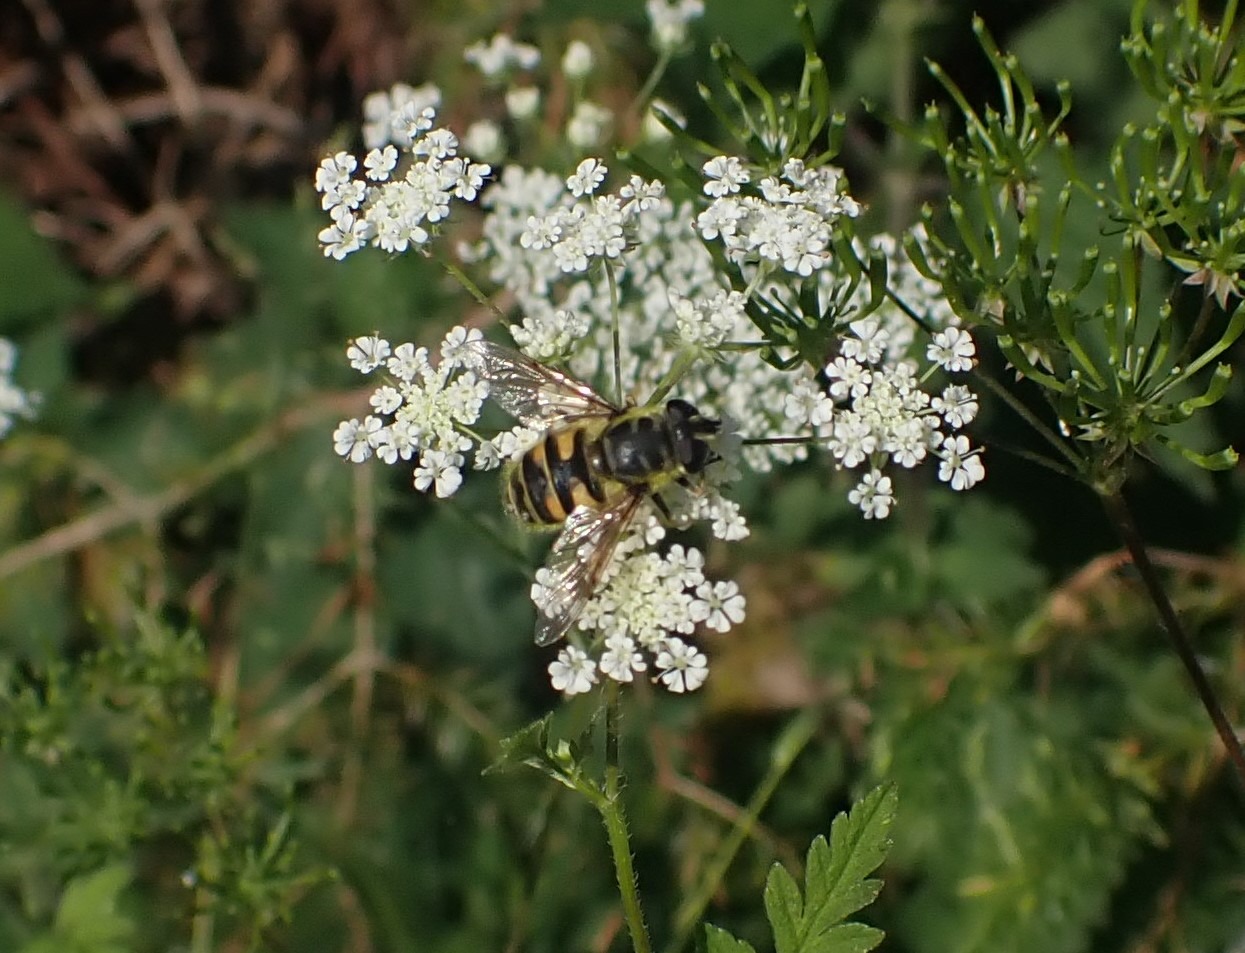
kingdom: Animalia
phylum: Arthropoda
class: Insecta
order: Diptera
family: Syrphidae
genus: Myathropa
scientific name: Myathropa florea
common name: Dødningehoved-svirreflue
